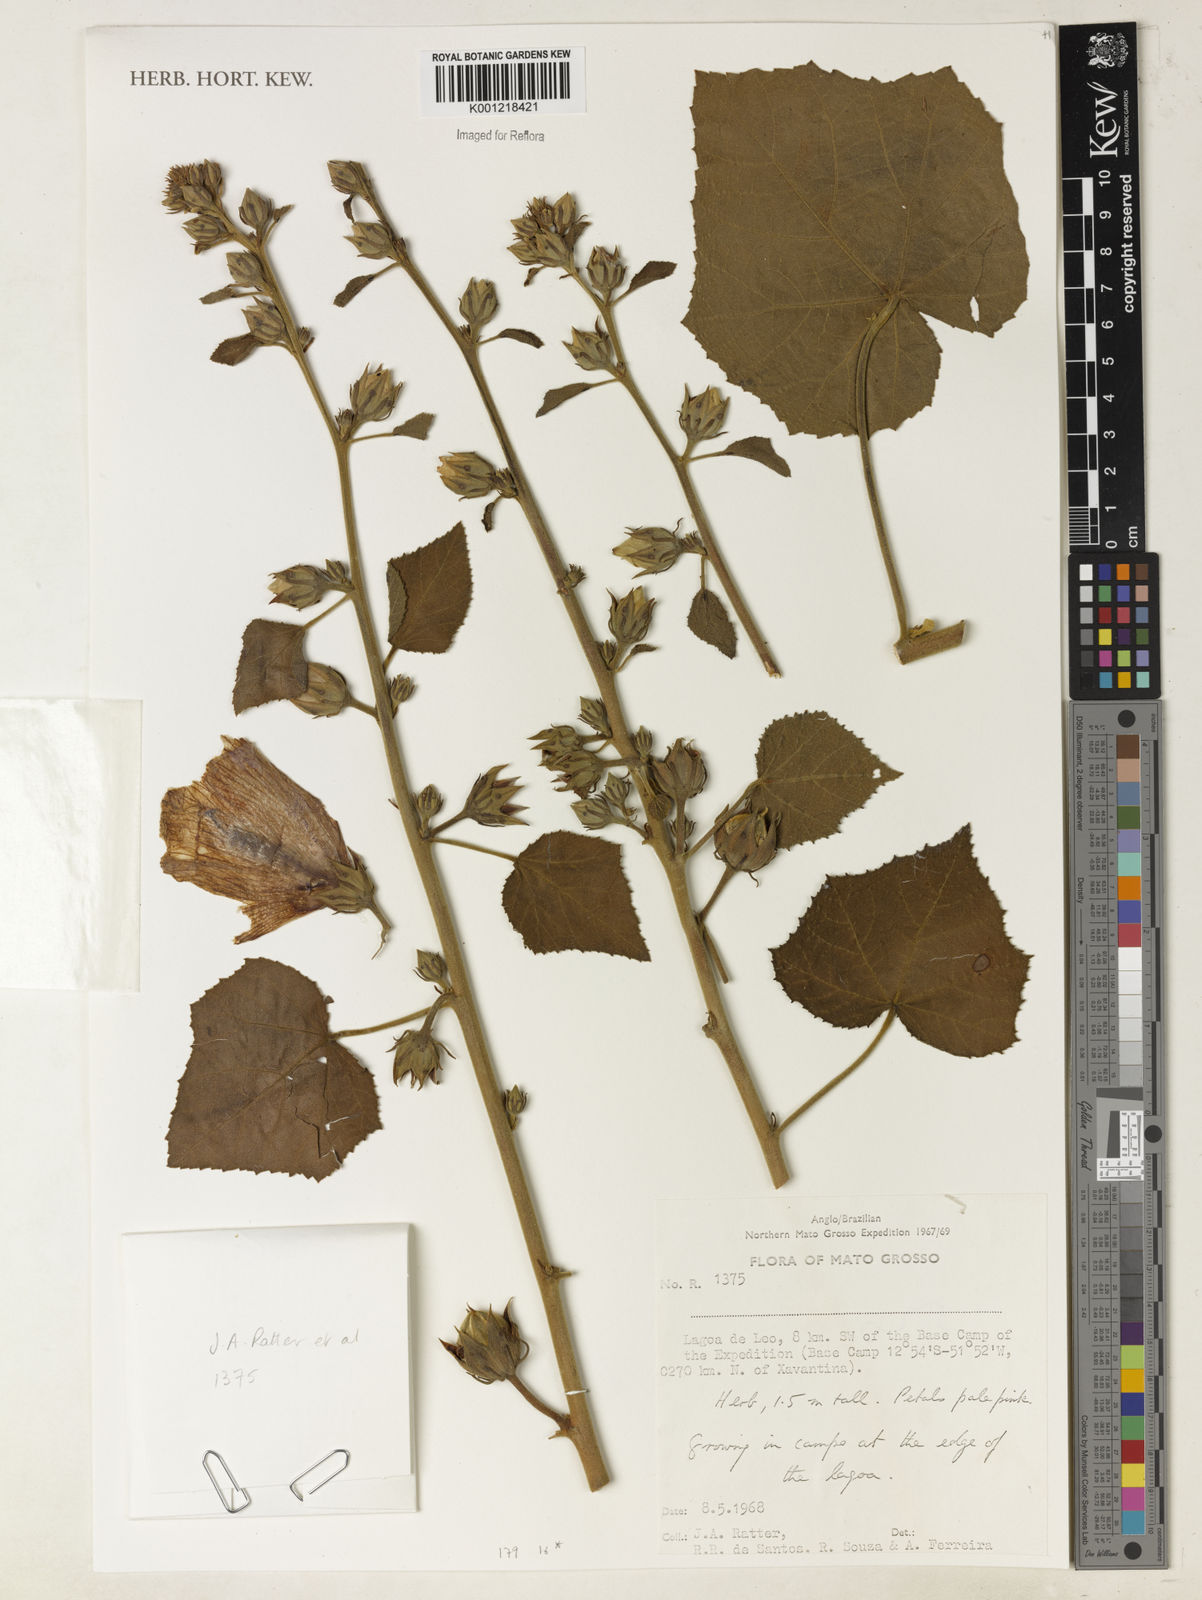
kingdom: Plantae
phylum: Tracheophyta
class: Magnoliopsida
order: Malvales
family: Malvaceae
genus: Hibiscus
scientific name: Hibiscus
